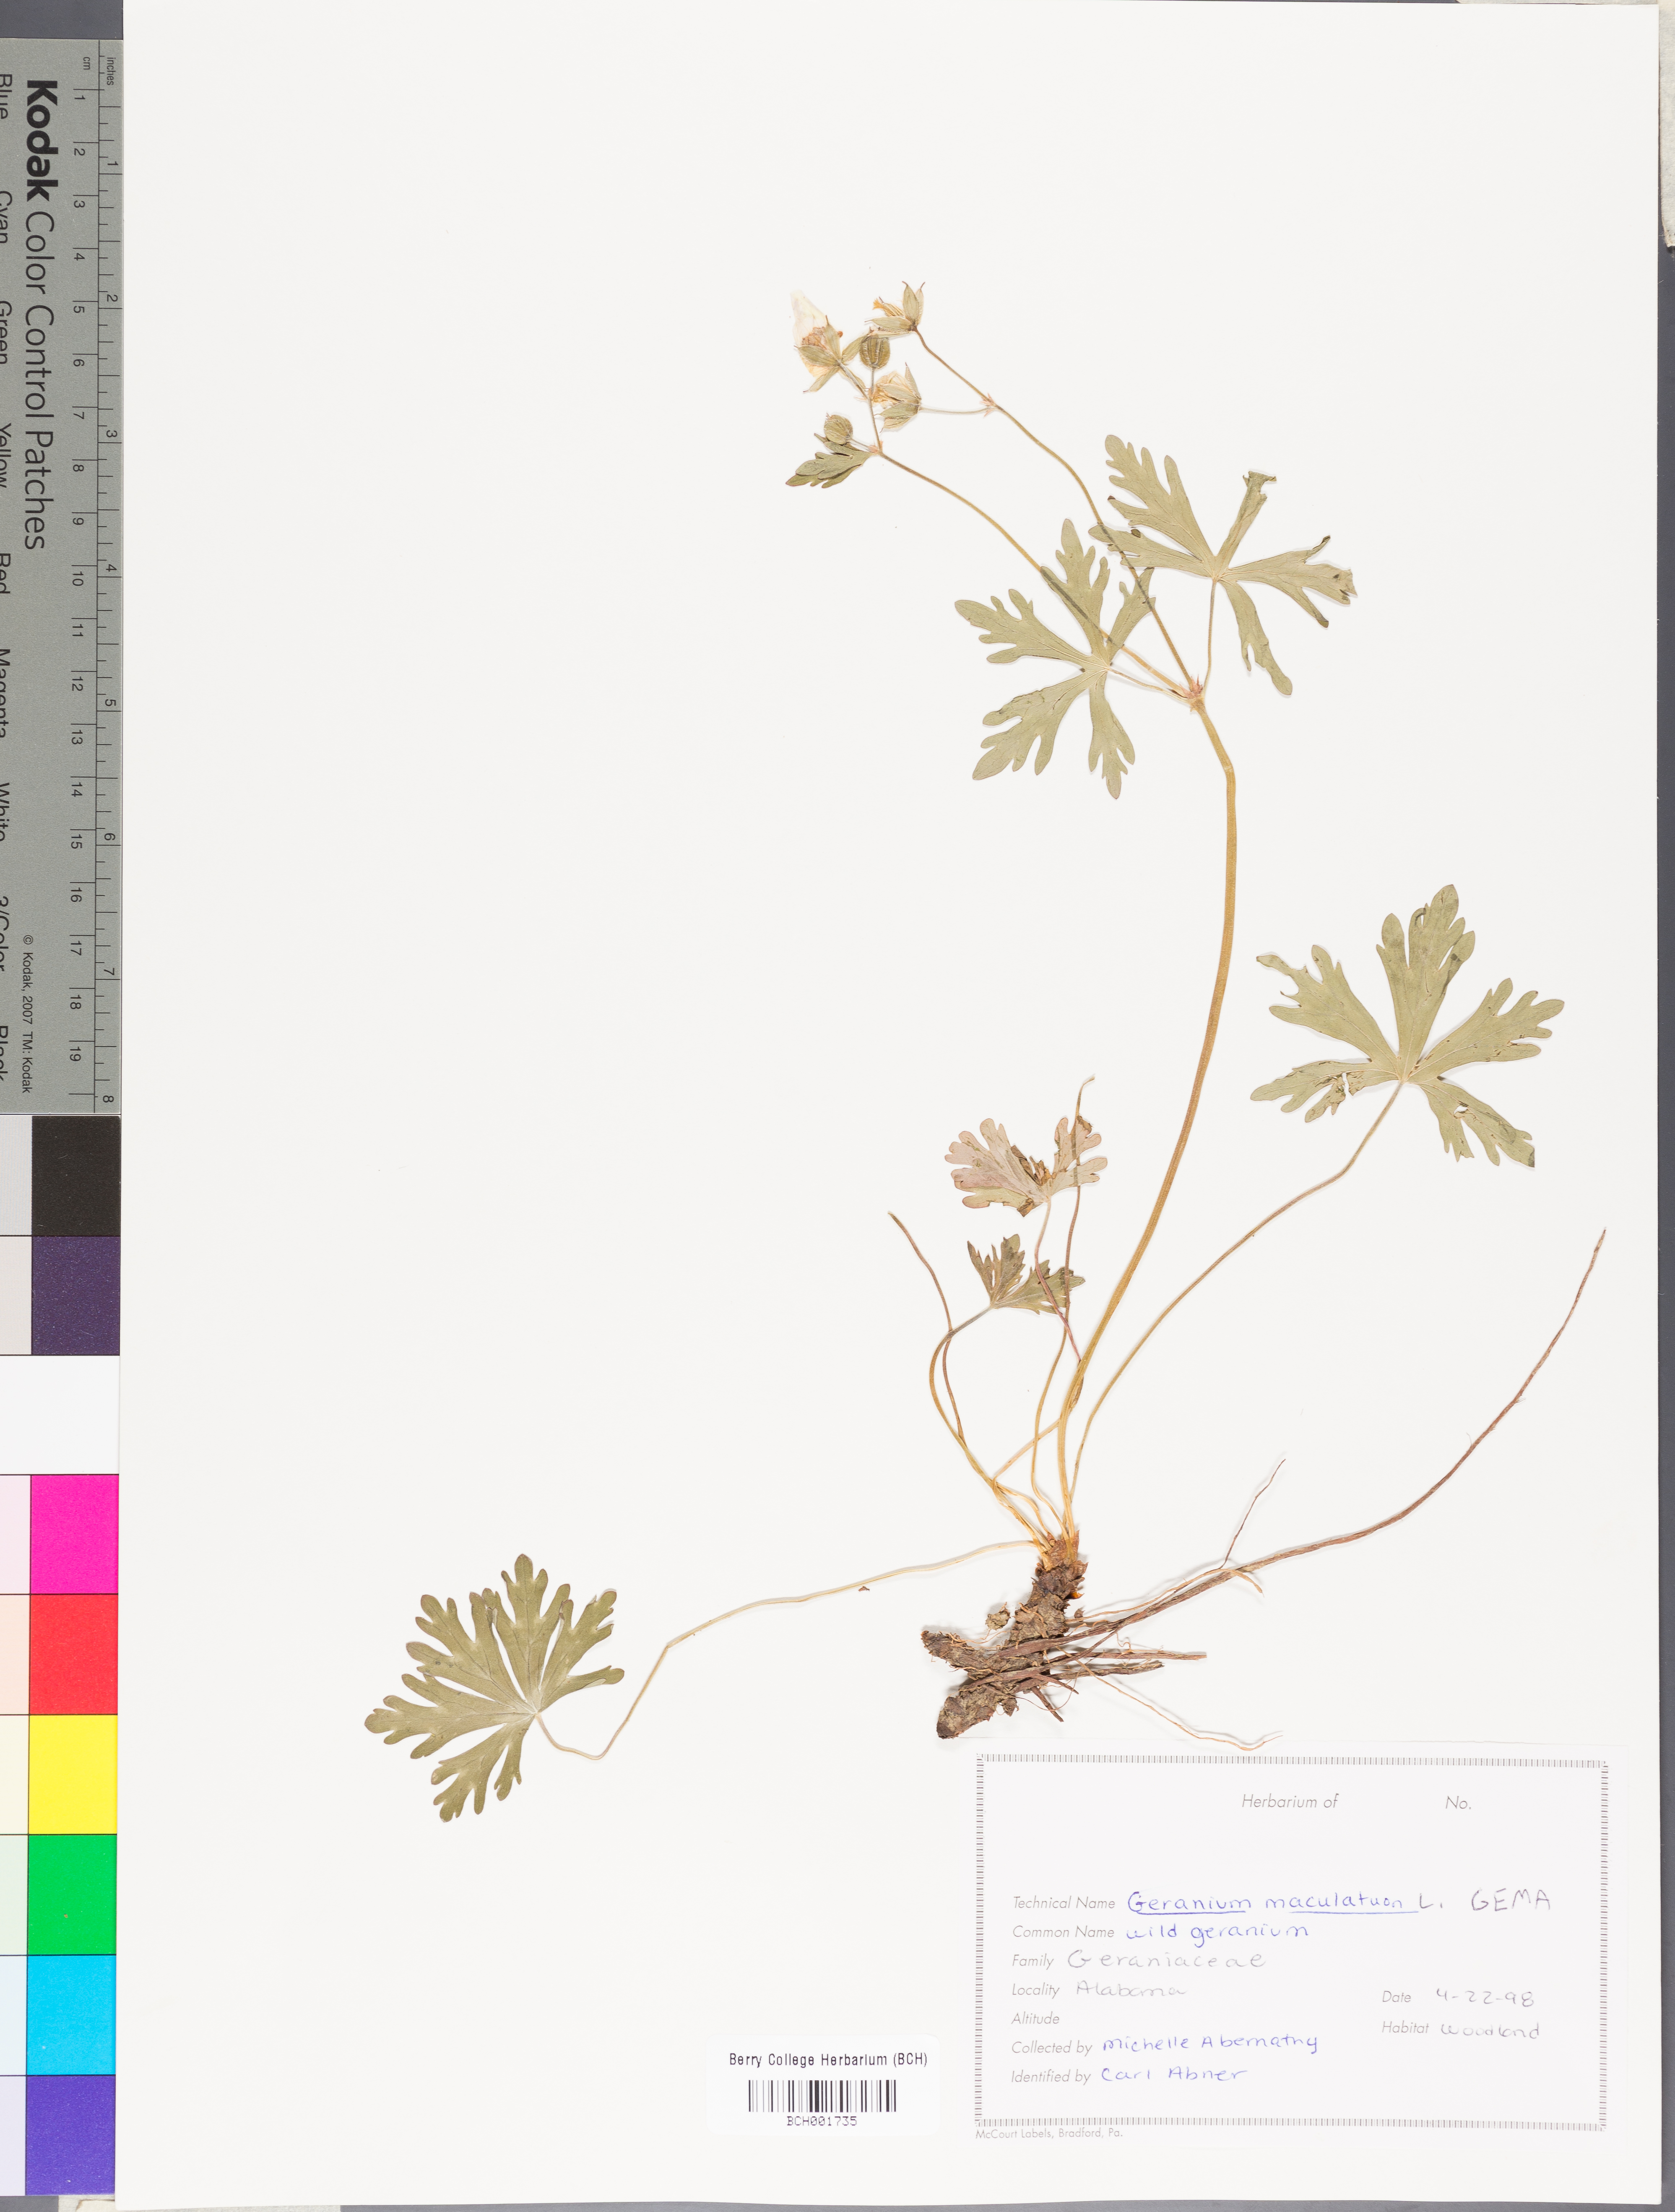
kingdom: Plantae
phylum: Tracheophyta
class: Magnoliopsida
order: Geraniales
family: Geraniaceae
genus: Geranium
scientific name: Geranium maculatum
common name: Spotted geranium
